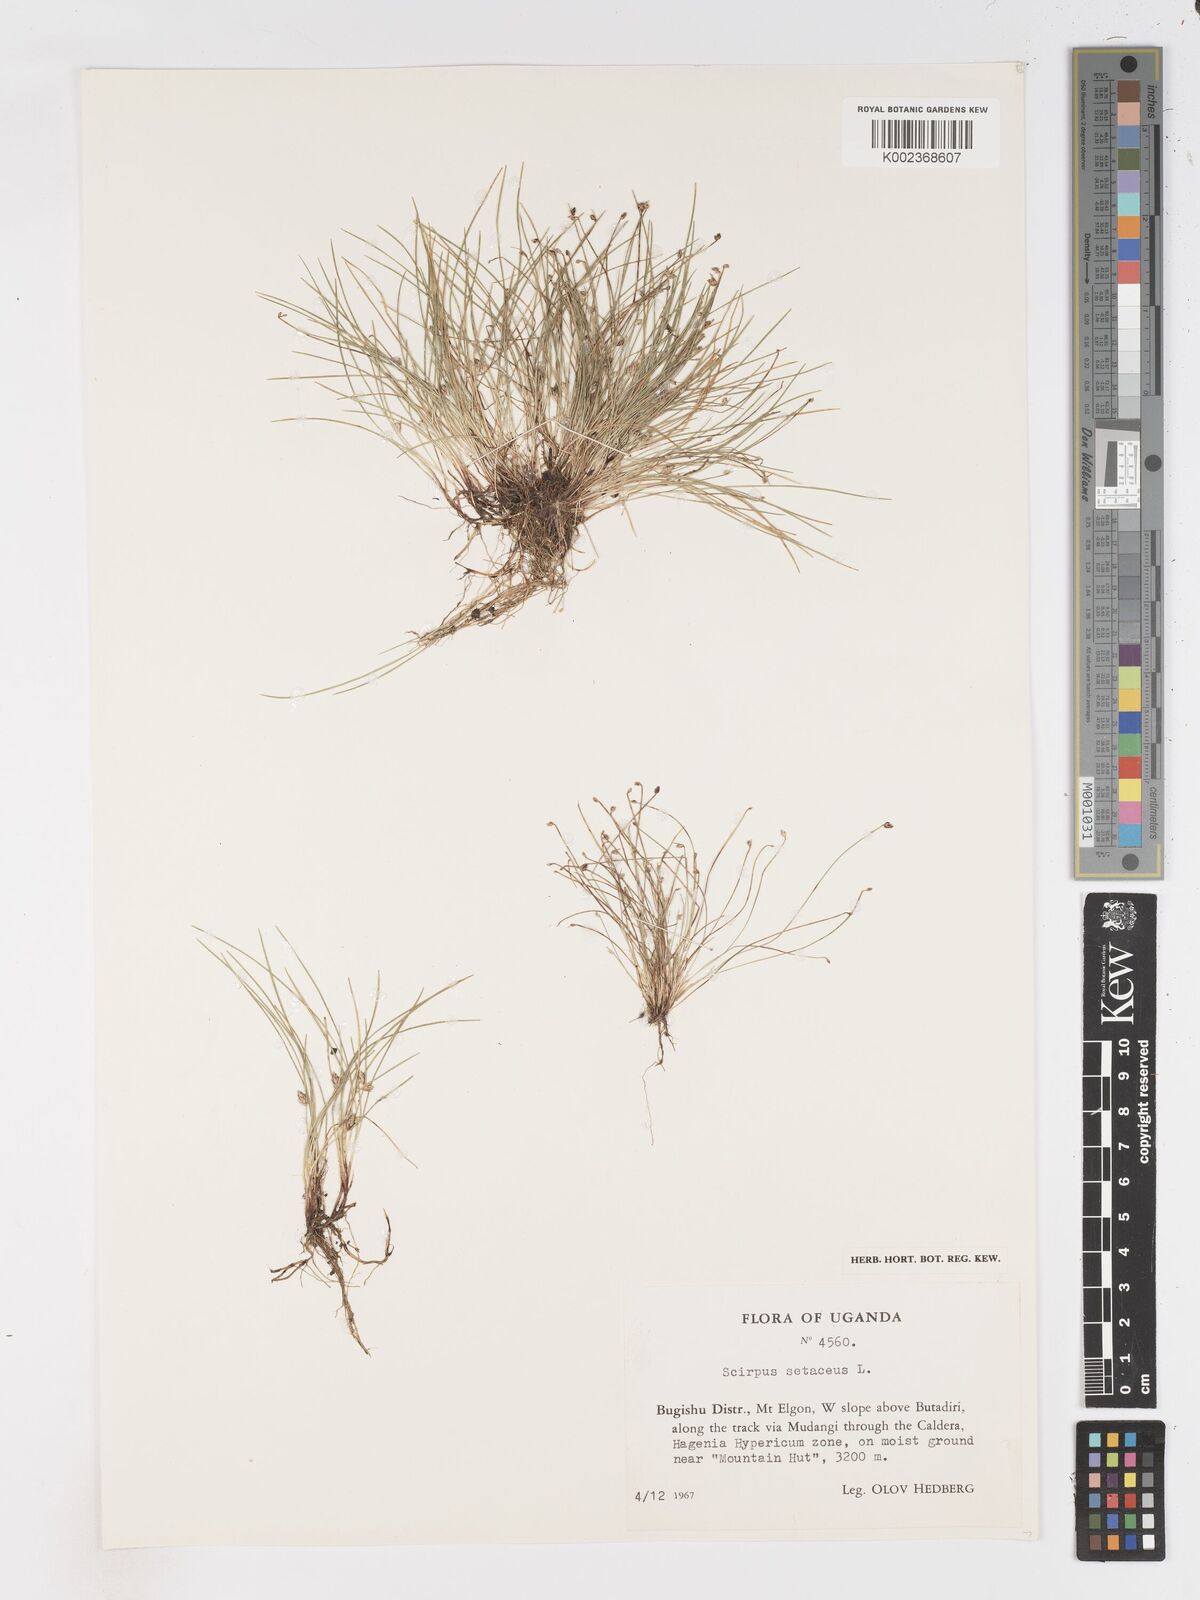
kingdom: Plantae
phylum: Tracheophyta
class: Liliopsida
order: Poales
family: Cyperaceae
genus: Isolepis
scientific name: Isolepis setacea
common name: Bristle club-rush
